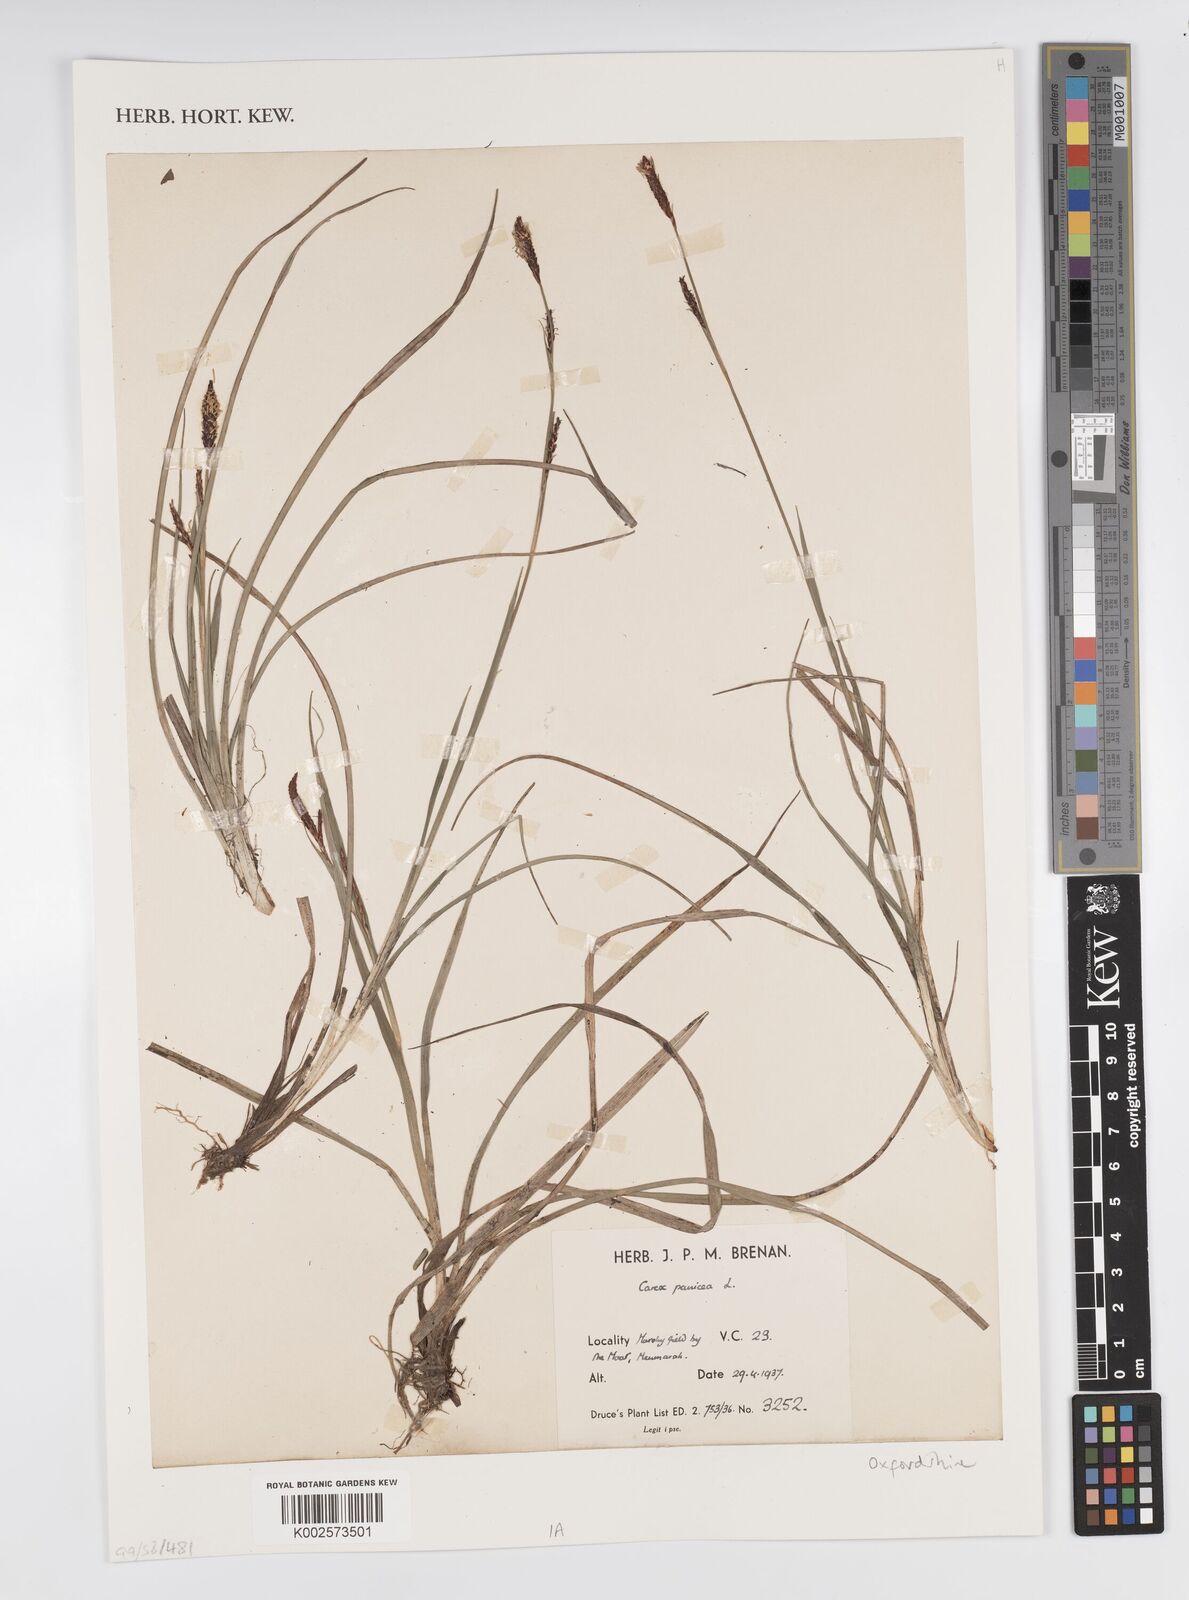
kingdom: Plantae
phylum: Tracheophyta
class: Liliopsida
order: Poales
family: Cyperaceae
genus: Carex
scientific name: Carex panicea
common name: Carnation sedge
